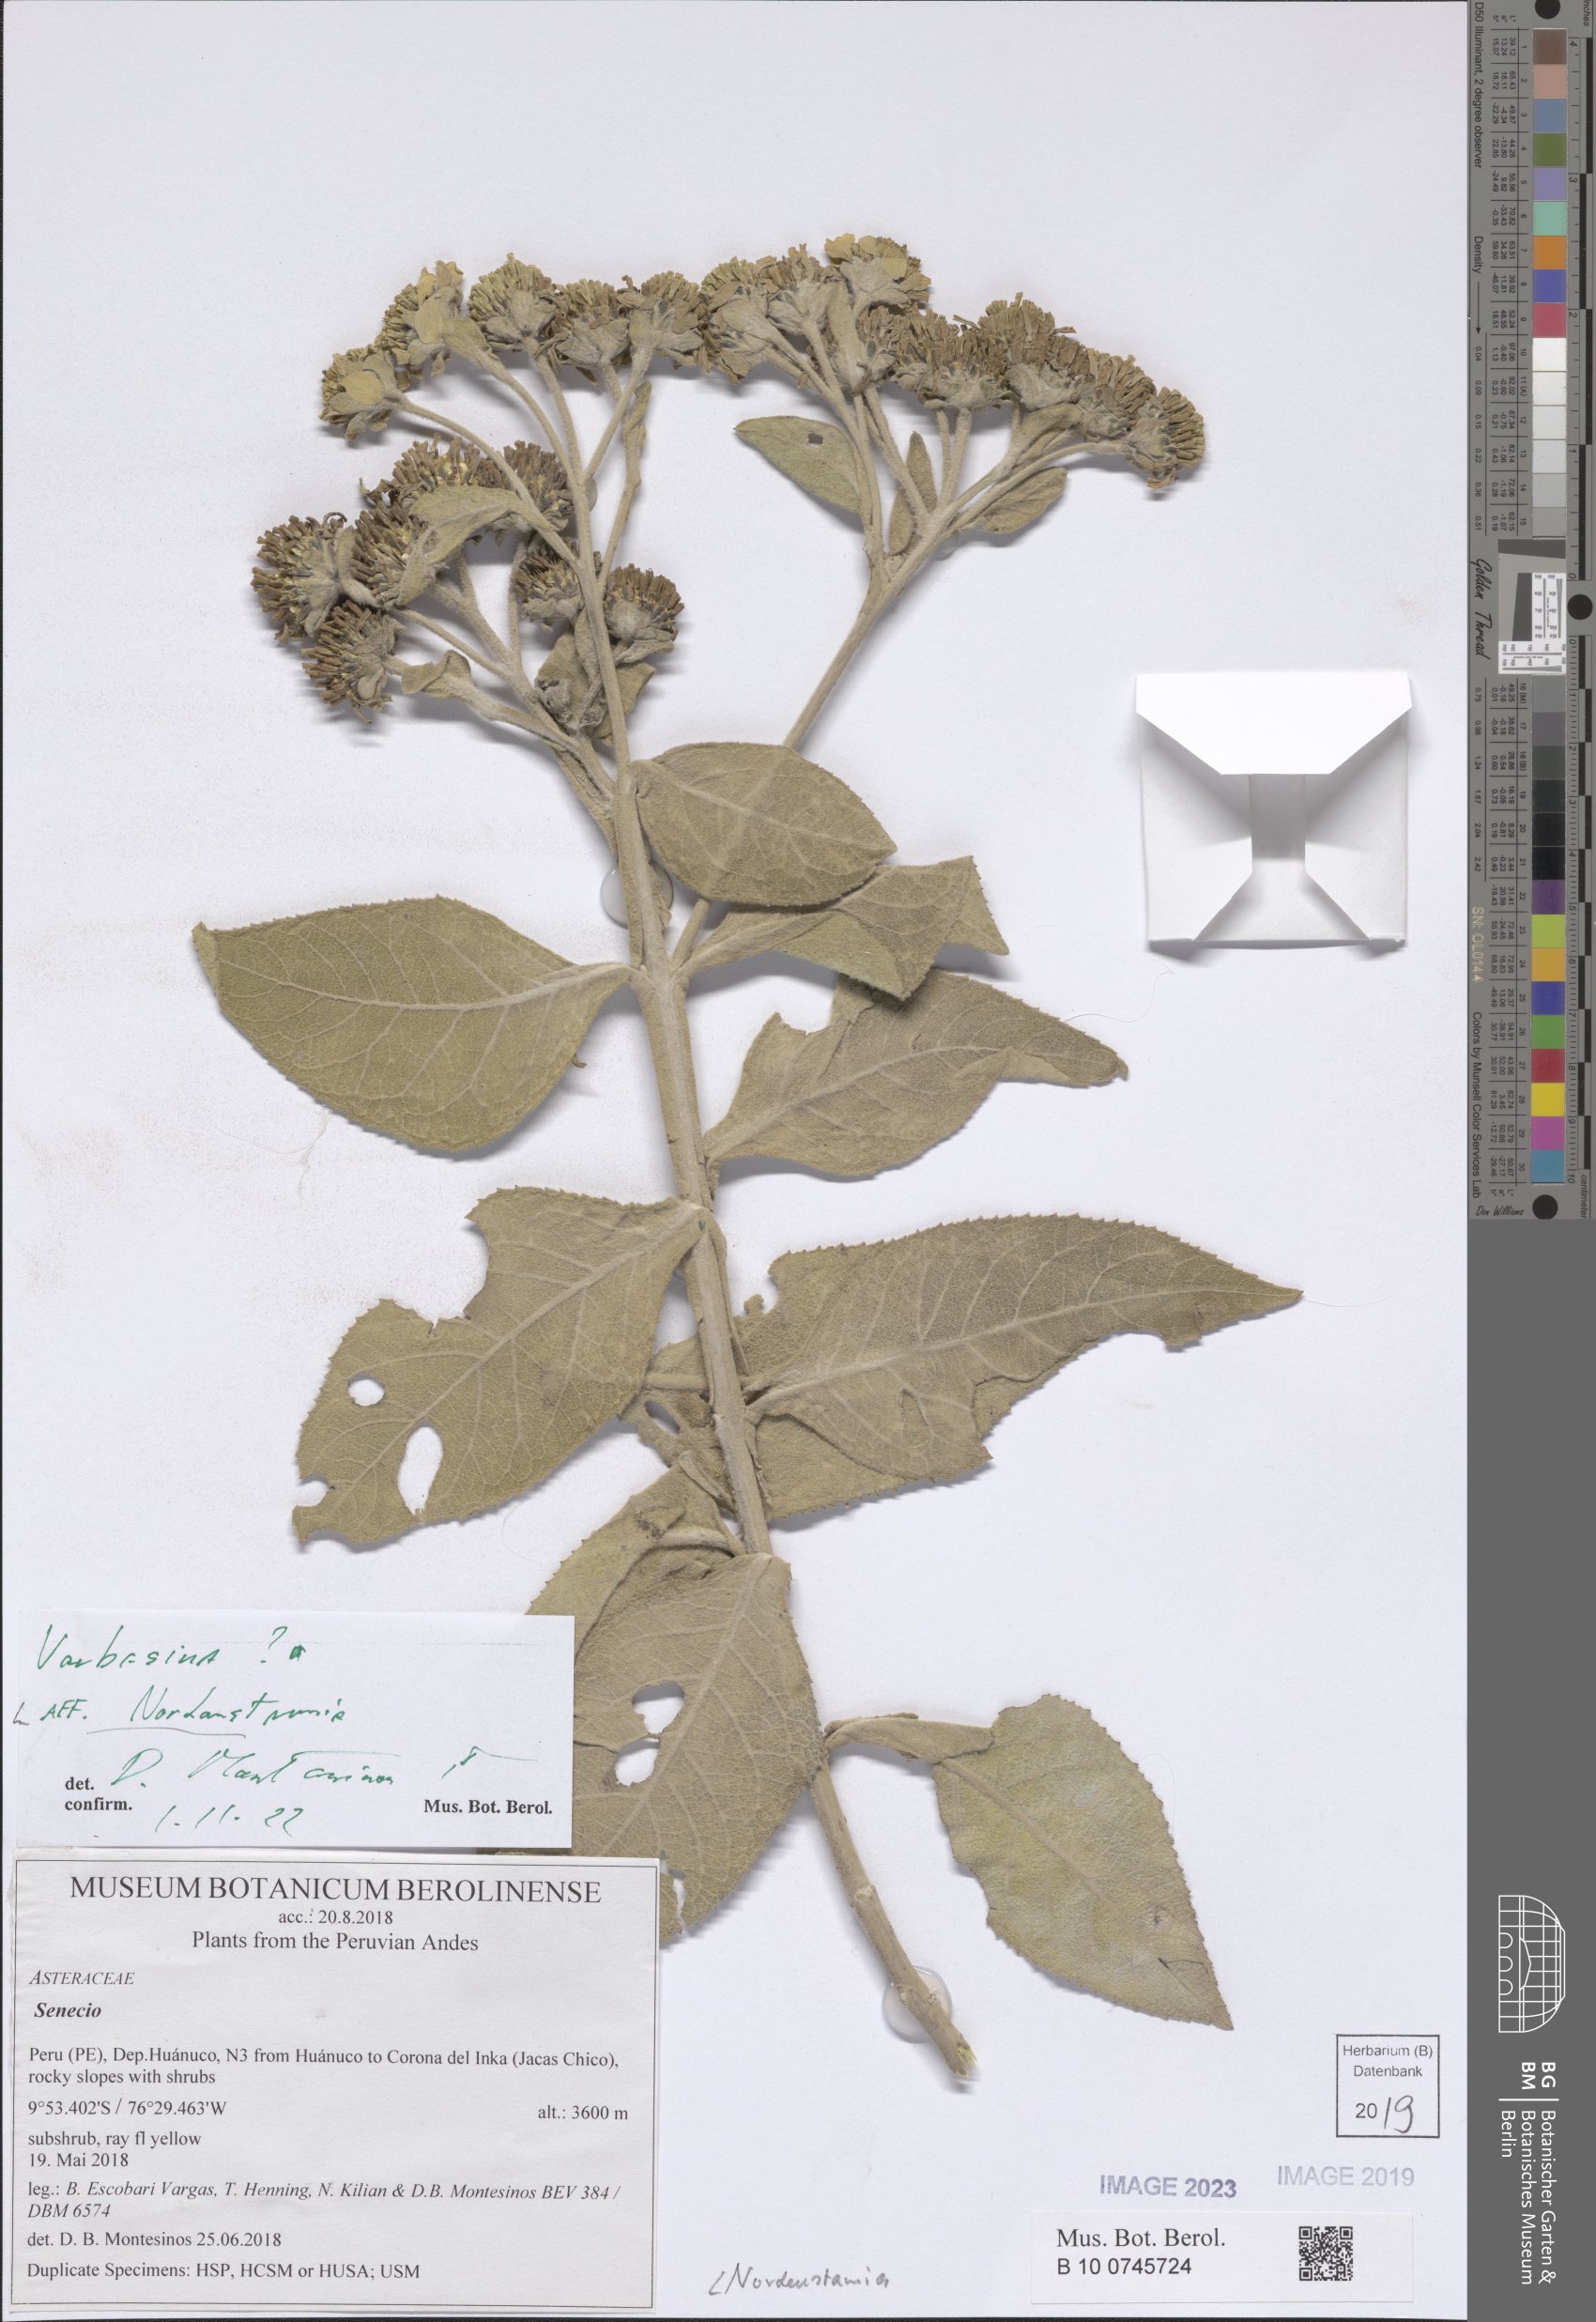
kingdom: Plantae
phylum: Tracheophyta
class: Magnoliopsida
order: Asterales
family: Asteraceae
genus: Nordenstamia
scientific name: Nordenstamia
